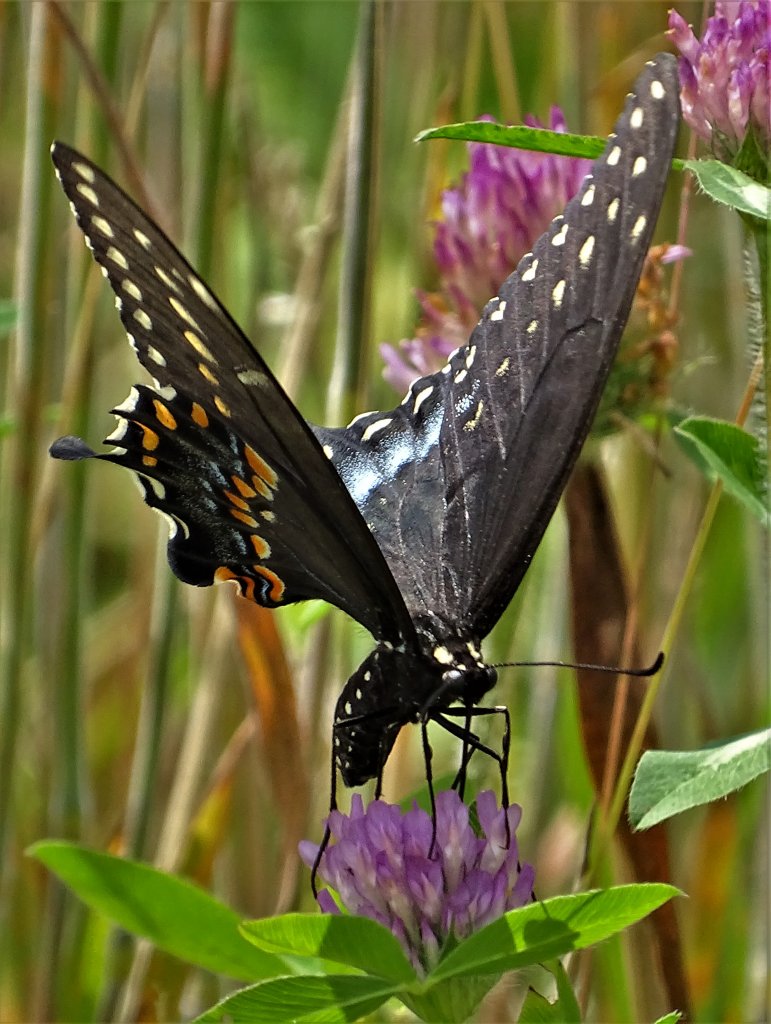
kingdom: Animalia
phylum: Arthropoda
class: Insecta
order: Lepidoptera
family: Papilionidae
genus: Papilio
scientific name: Papilio polyxenes
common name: Black Swallowtail
